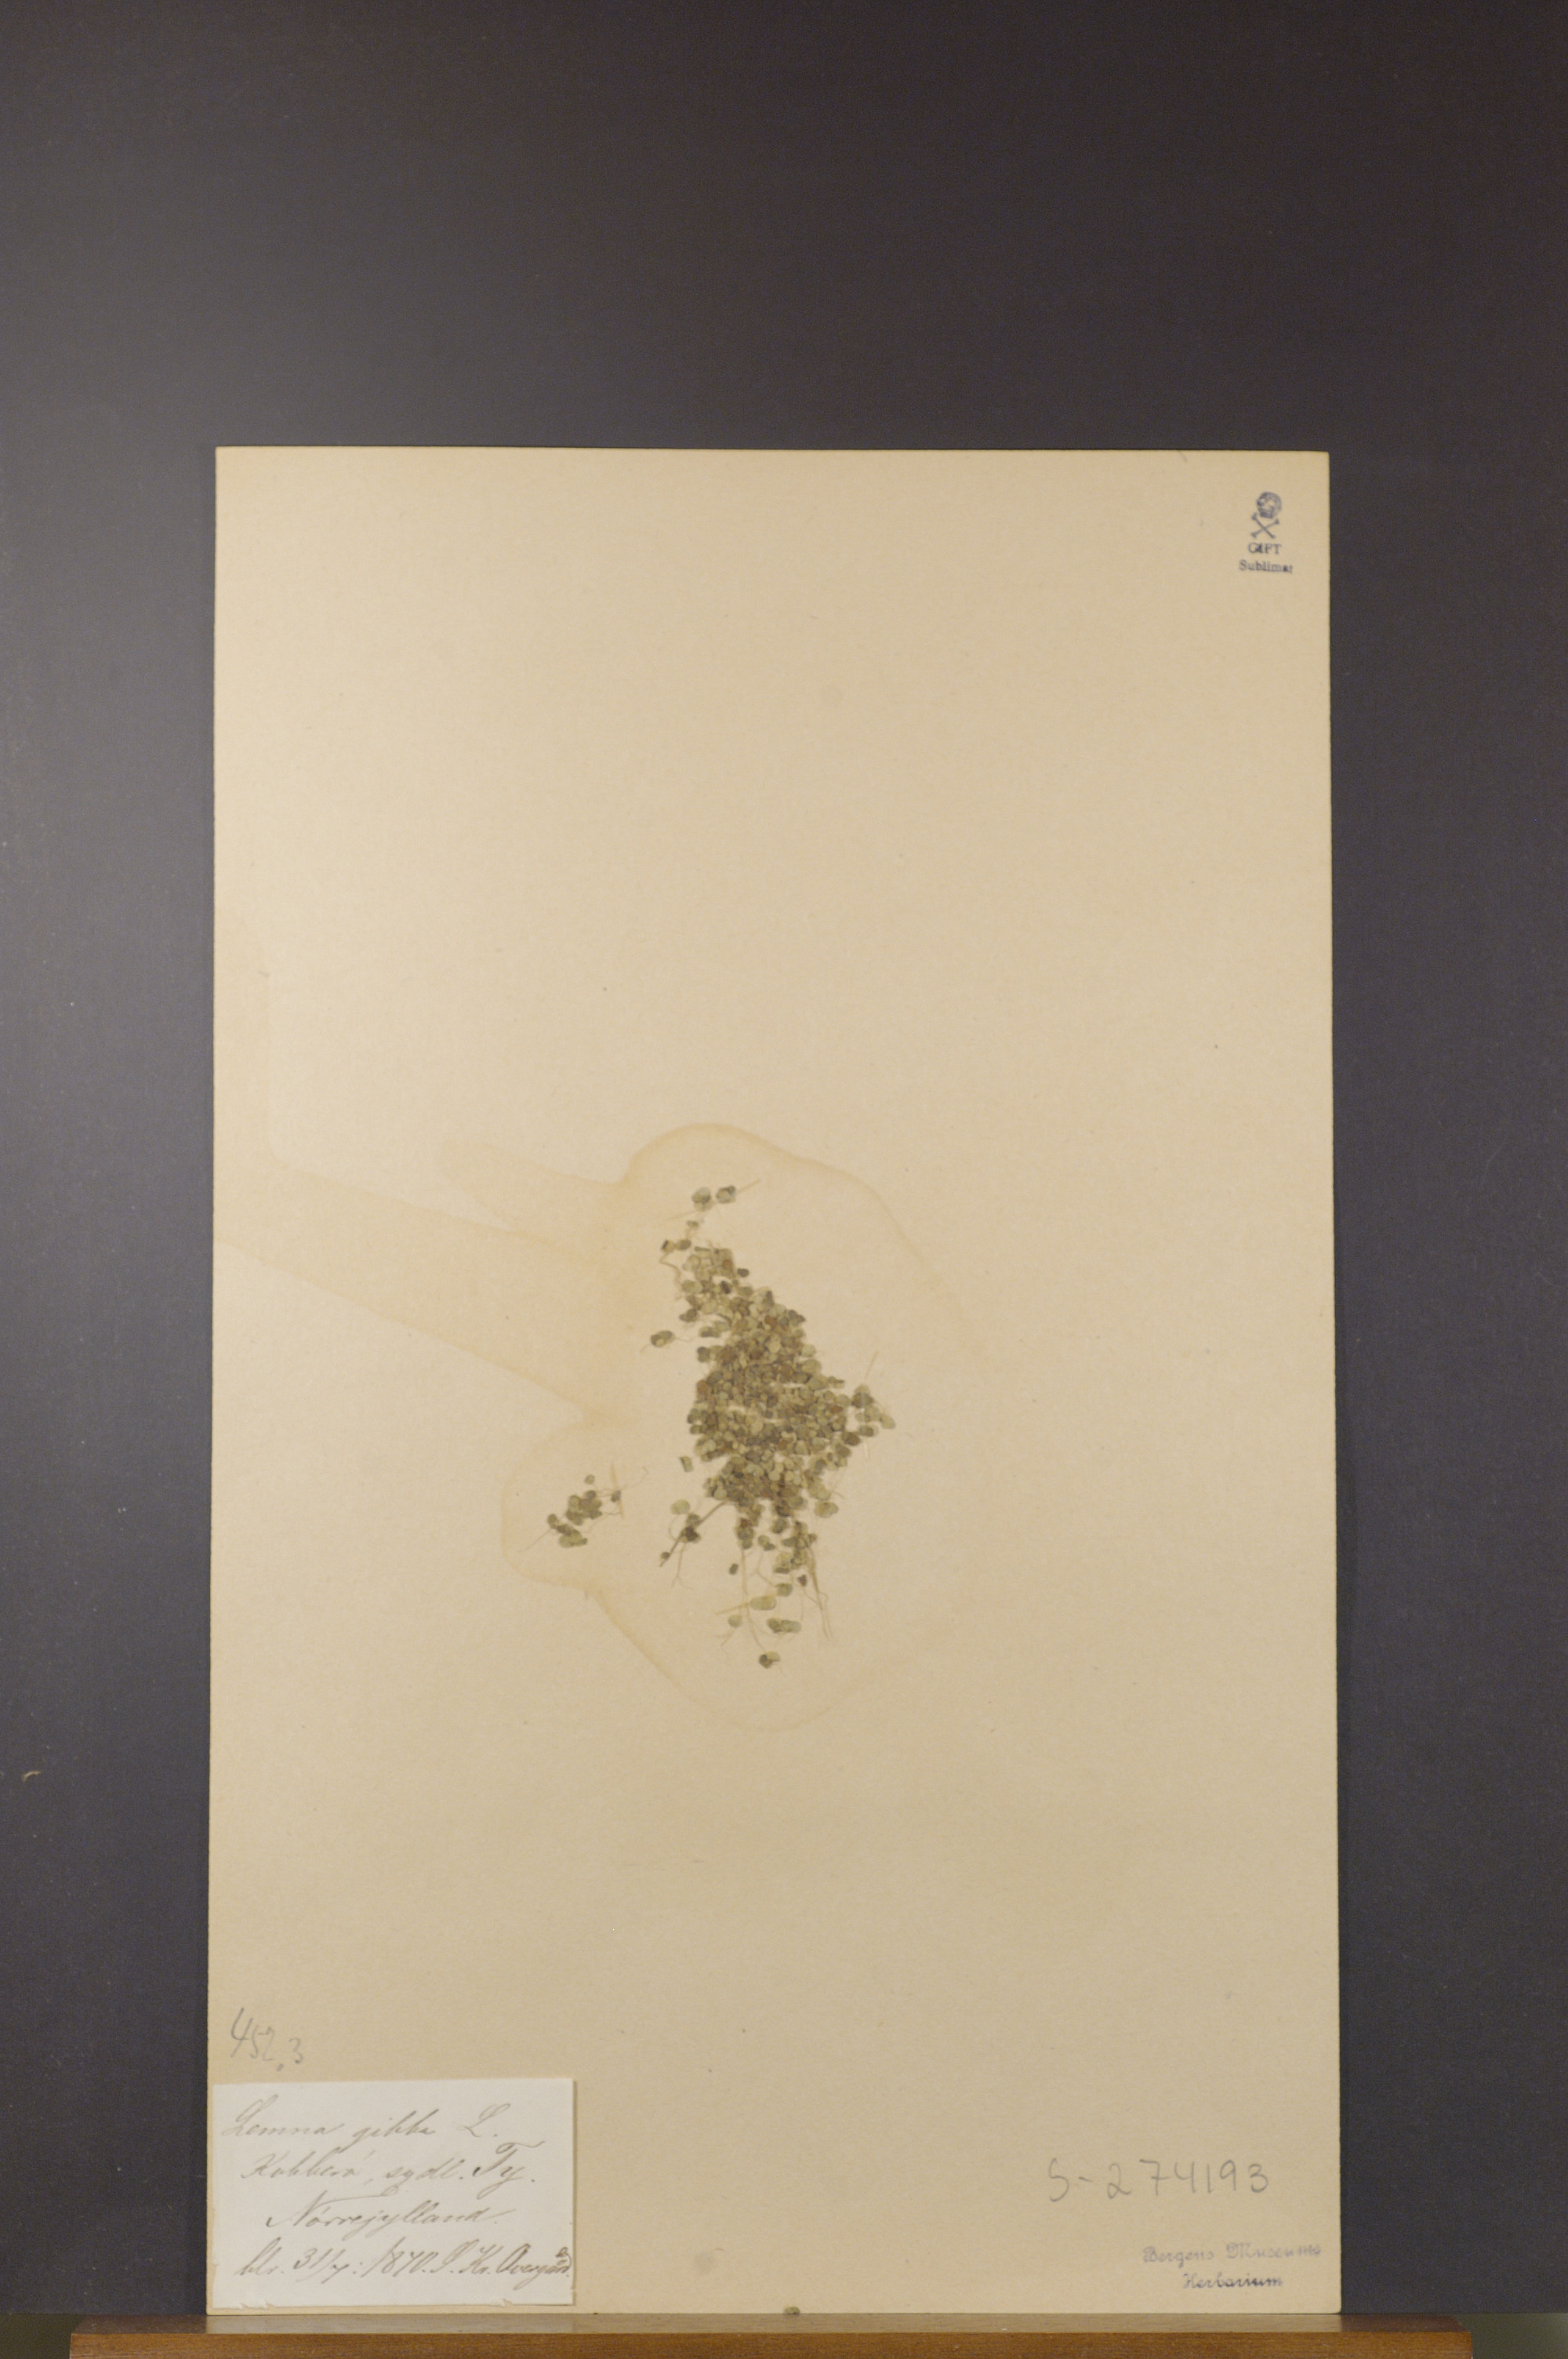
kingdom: Plantae
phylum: Tracheophyta
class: Liliopsida
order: Alismatales
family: Araceae
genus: Lemna
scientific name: Lemna gibba
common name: Fat duckweed
